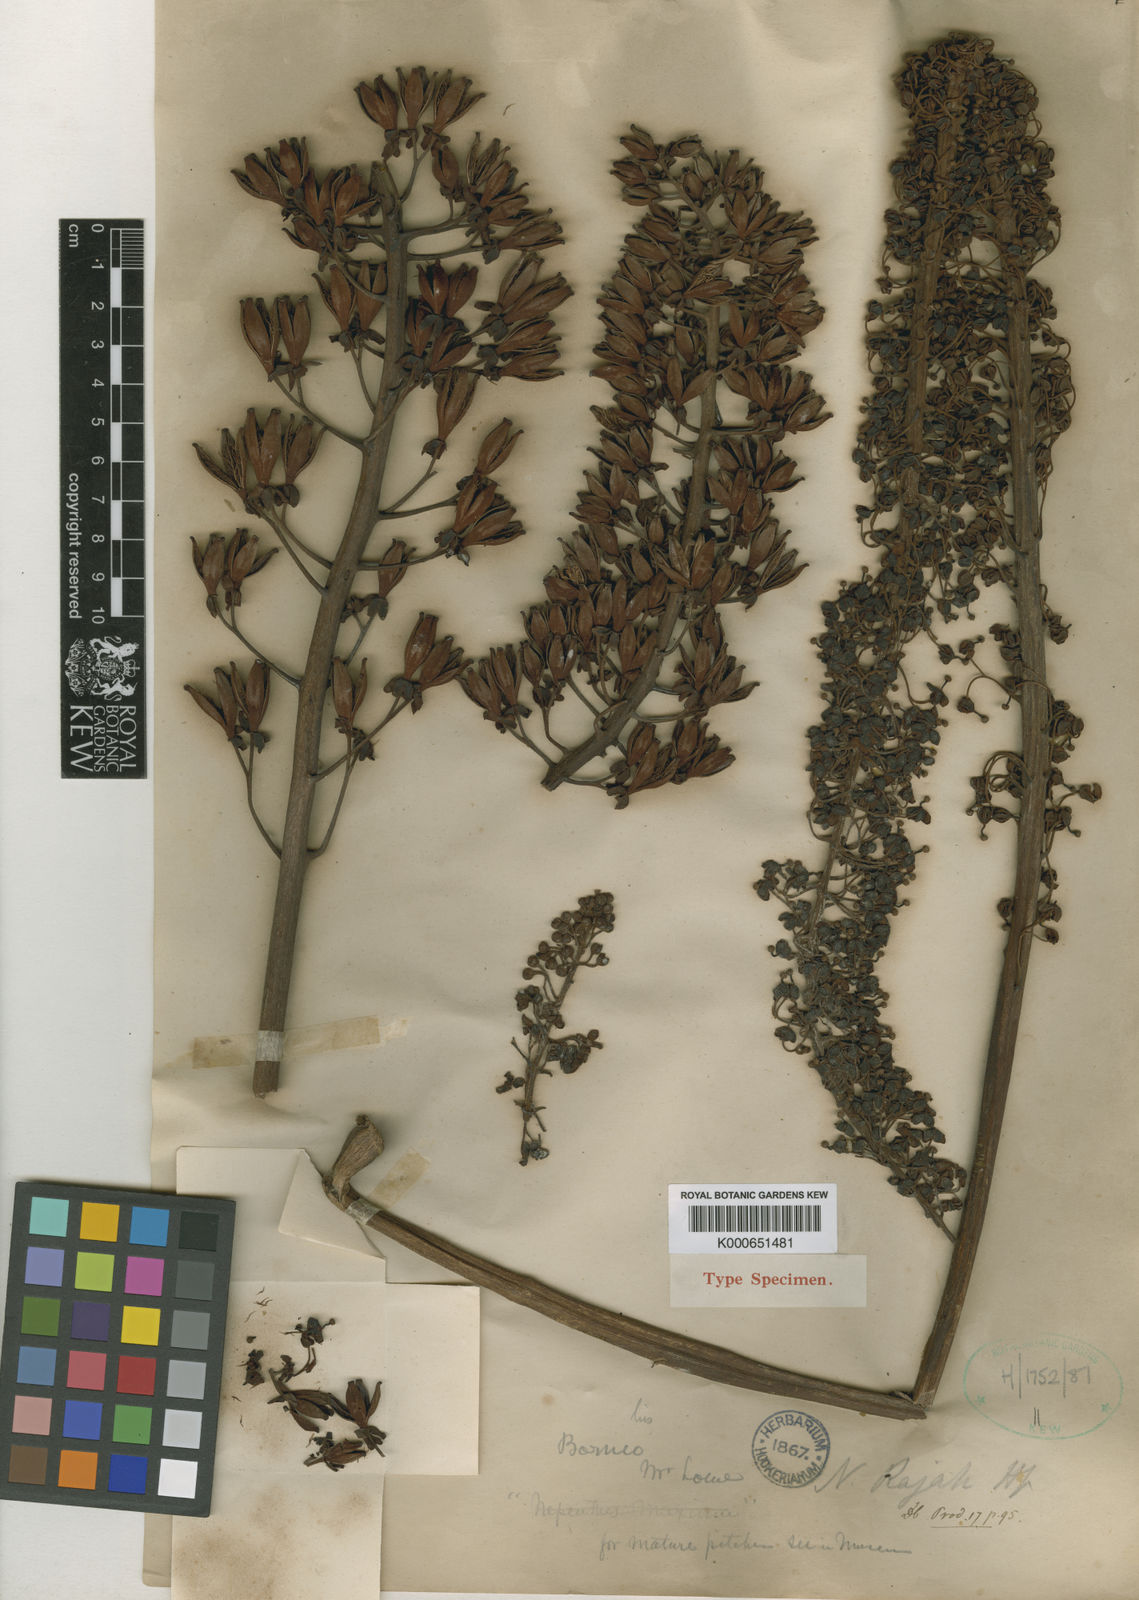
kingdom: Plantae
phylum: Tracheophyta
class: Magnoliopsida
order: Caryophyllales
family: Nepenthaceae
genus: Nepenthes
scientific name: Nepenthes rajah
